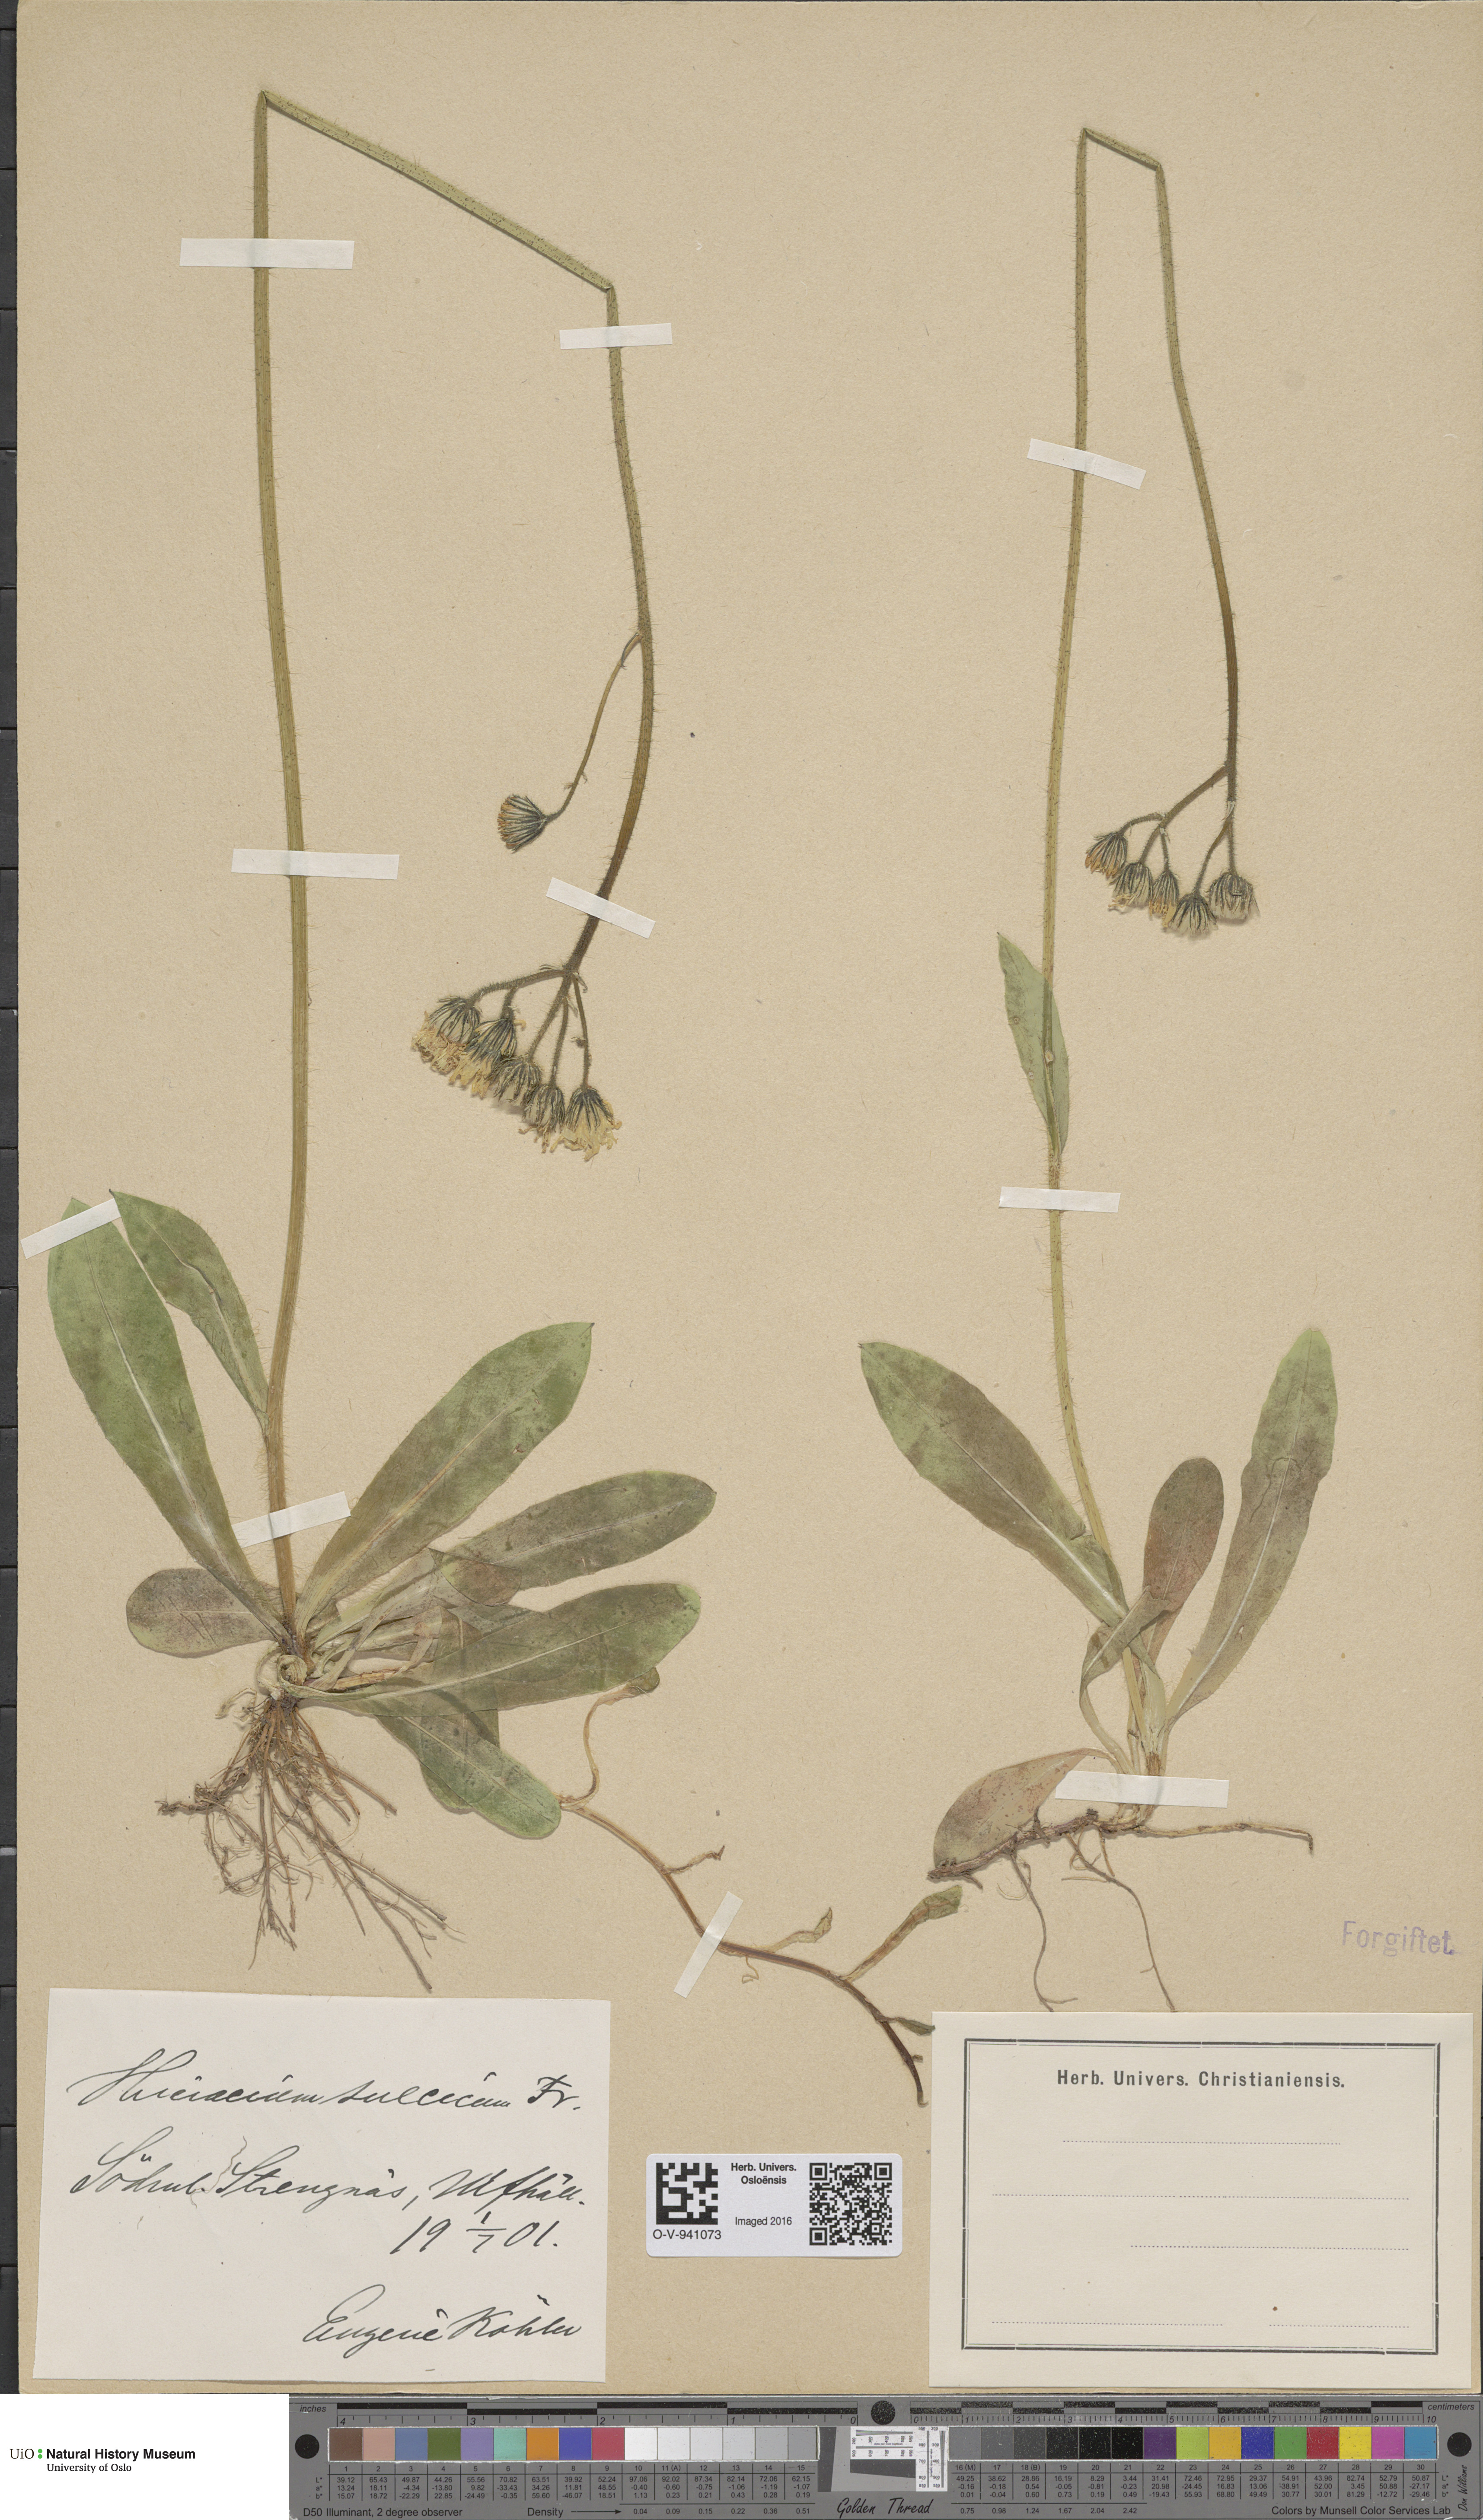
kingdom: Plantae
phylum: Tracheophyta
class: Magnoliopsida
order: Asterales
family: Asteraceae
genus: Pilosella
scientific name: Pilosella dubia
